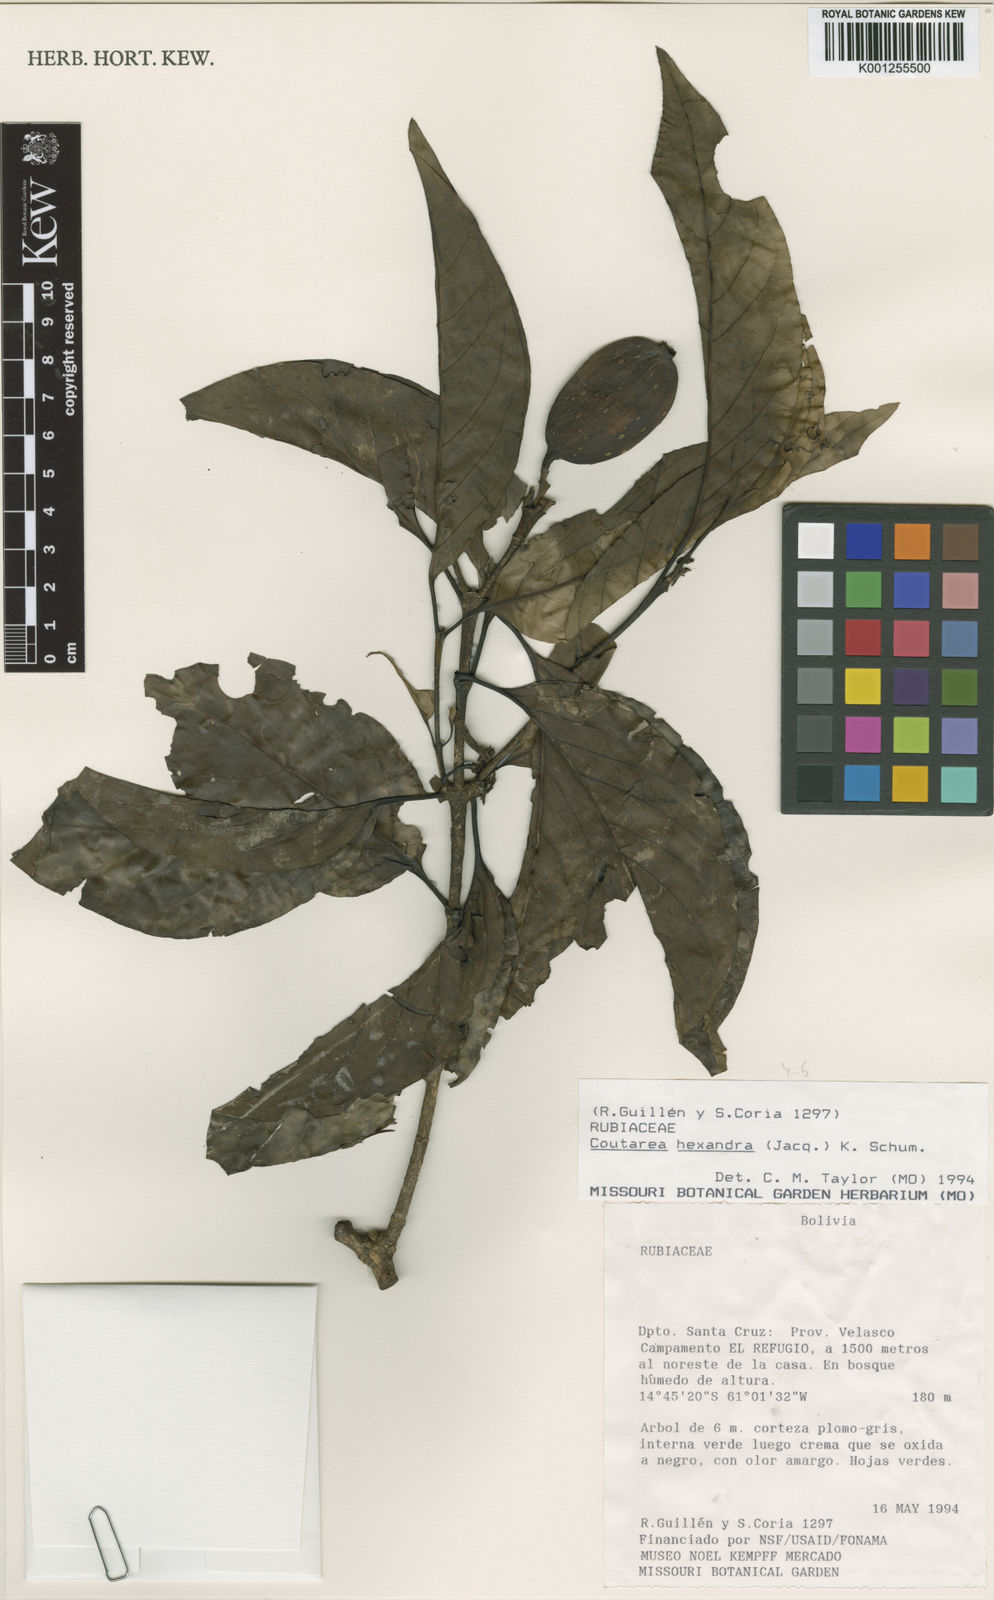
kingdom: Plantae
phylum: Tracheophyta
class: Magnoliopsida
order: Gentianales
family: Rubiaceae
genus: Coutarea
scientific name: Coutarea hexandra
